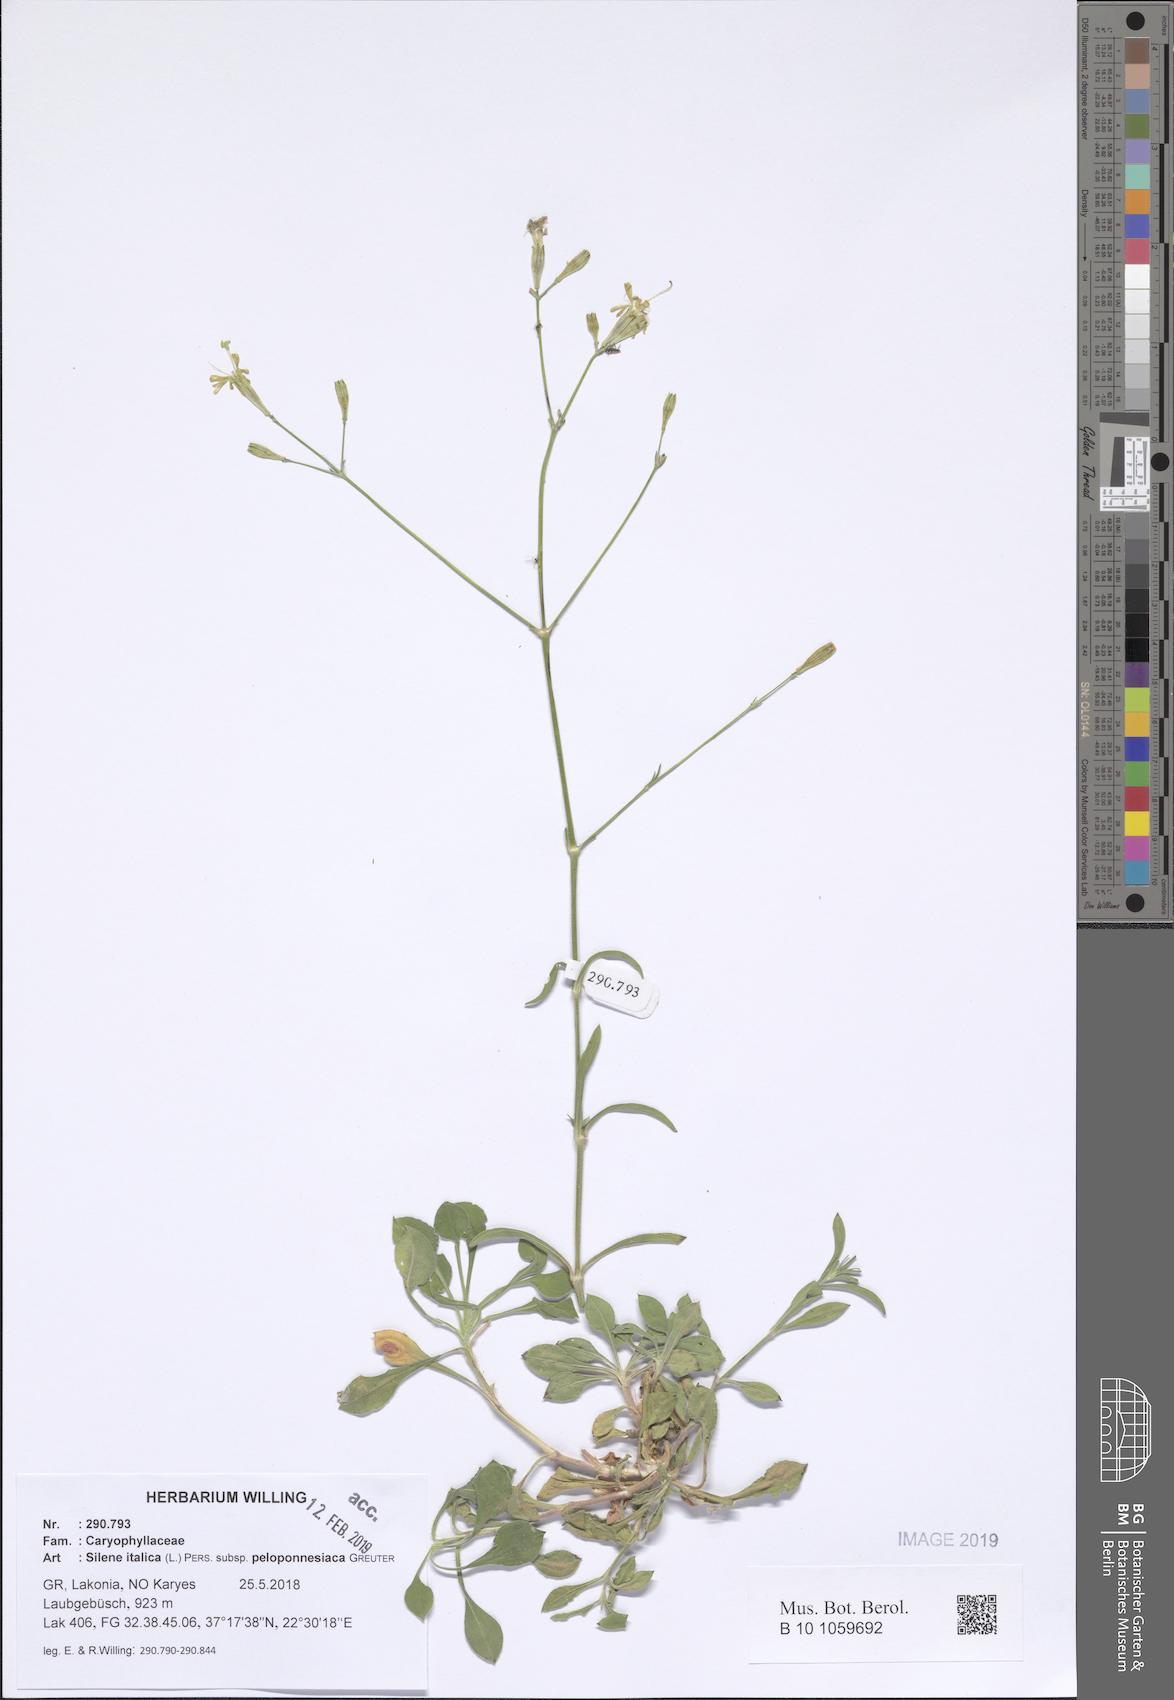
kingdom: Plantae
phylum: Tracheophyta
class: Magnoliopsida
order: Caryophyllales
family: Caryophyllaceae
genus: Silene
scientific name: Silene italica
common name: Italian catchfly
